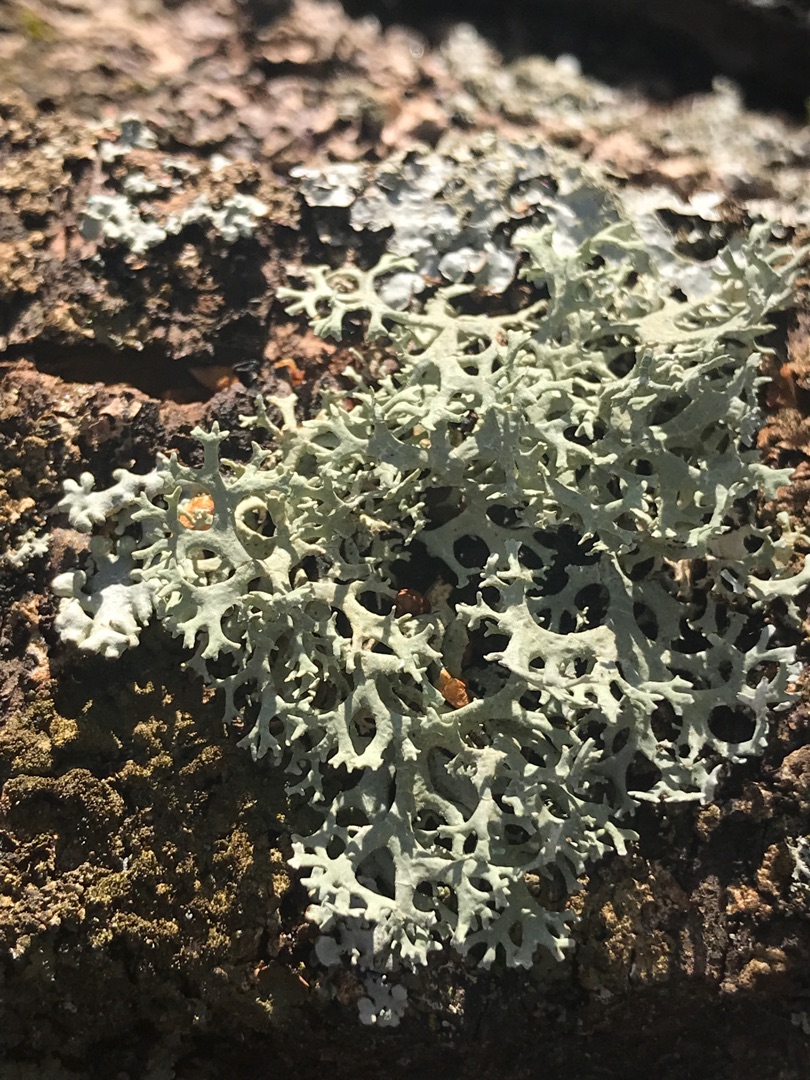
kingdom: Fungi
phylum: Ascomycota
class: Lecanoromycetes
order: Lecanorales
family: Parmeliaceae
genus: Evernia
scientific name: Evernia prunastri
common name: Almindelig slåenlav
